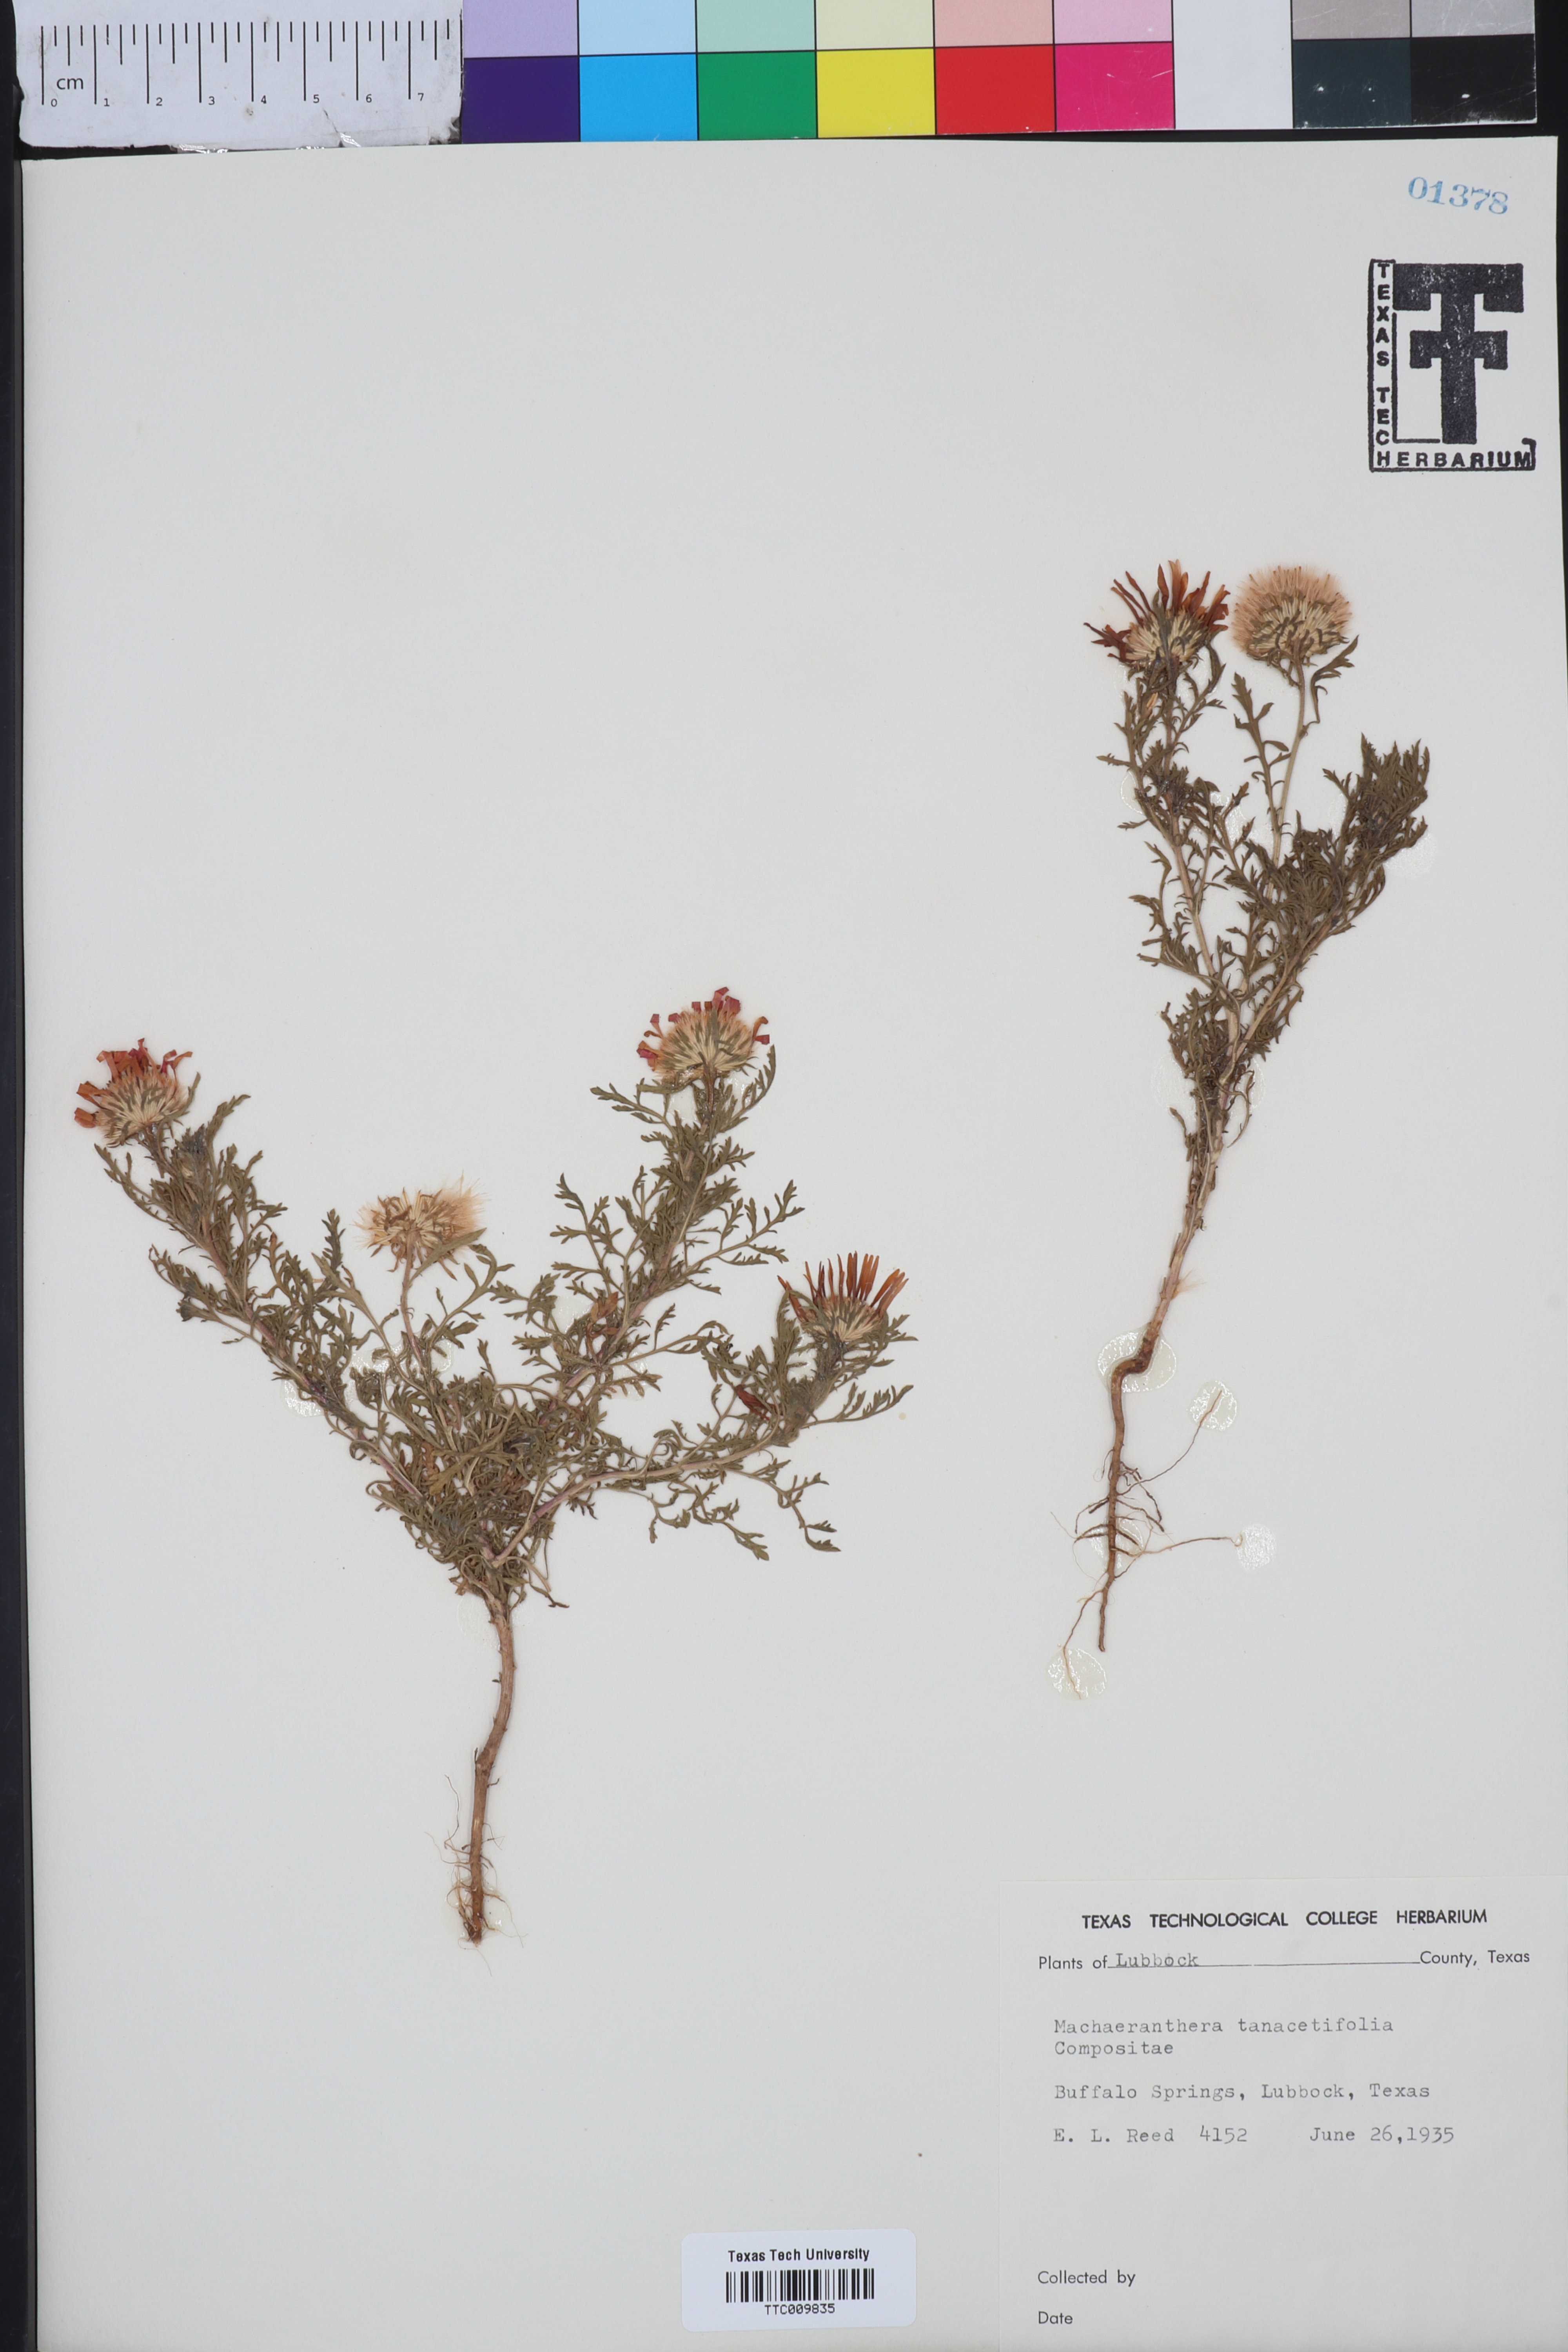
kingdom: Plantae
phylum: Tracheophyta
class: Magnoliopsida
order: Asterales
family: Asteraceae
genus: Machaeranthera
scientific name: Machaeranthera tanacetifolia
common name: Tansy-aster
